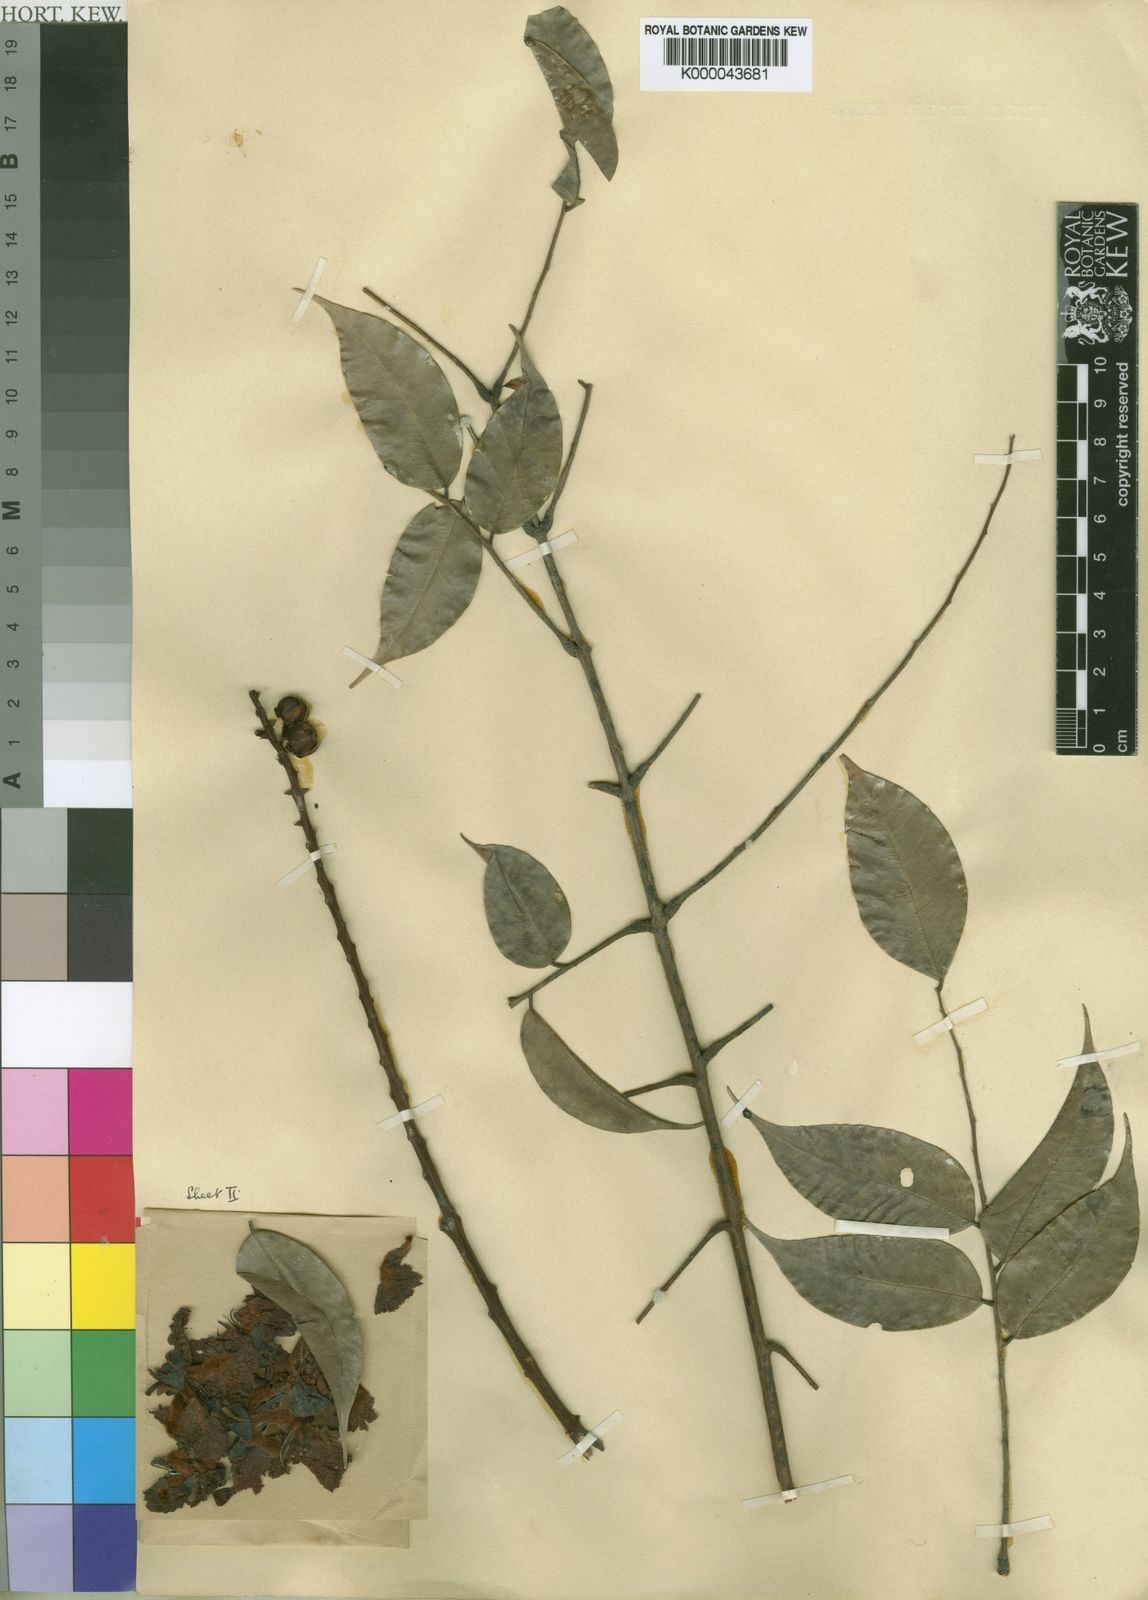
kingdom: Plantae
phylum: Tracheophyta
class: Magnoliopsida
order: Fabales
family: Fabaceae
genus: Bussea
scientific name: Bussea occidentalis
